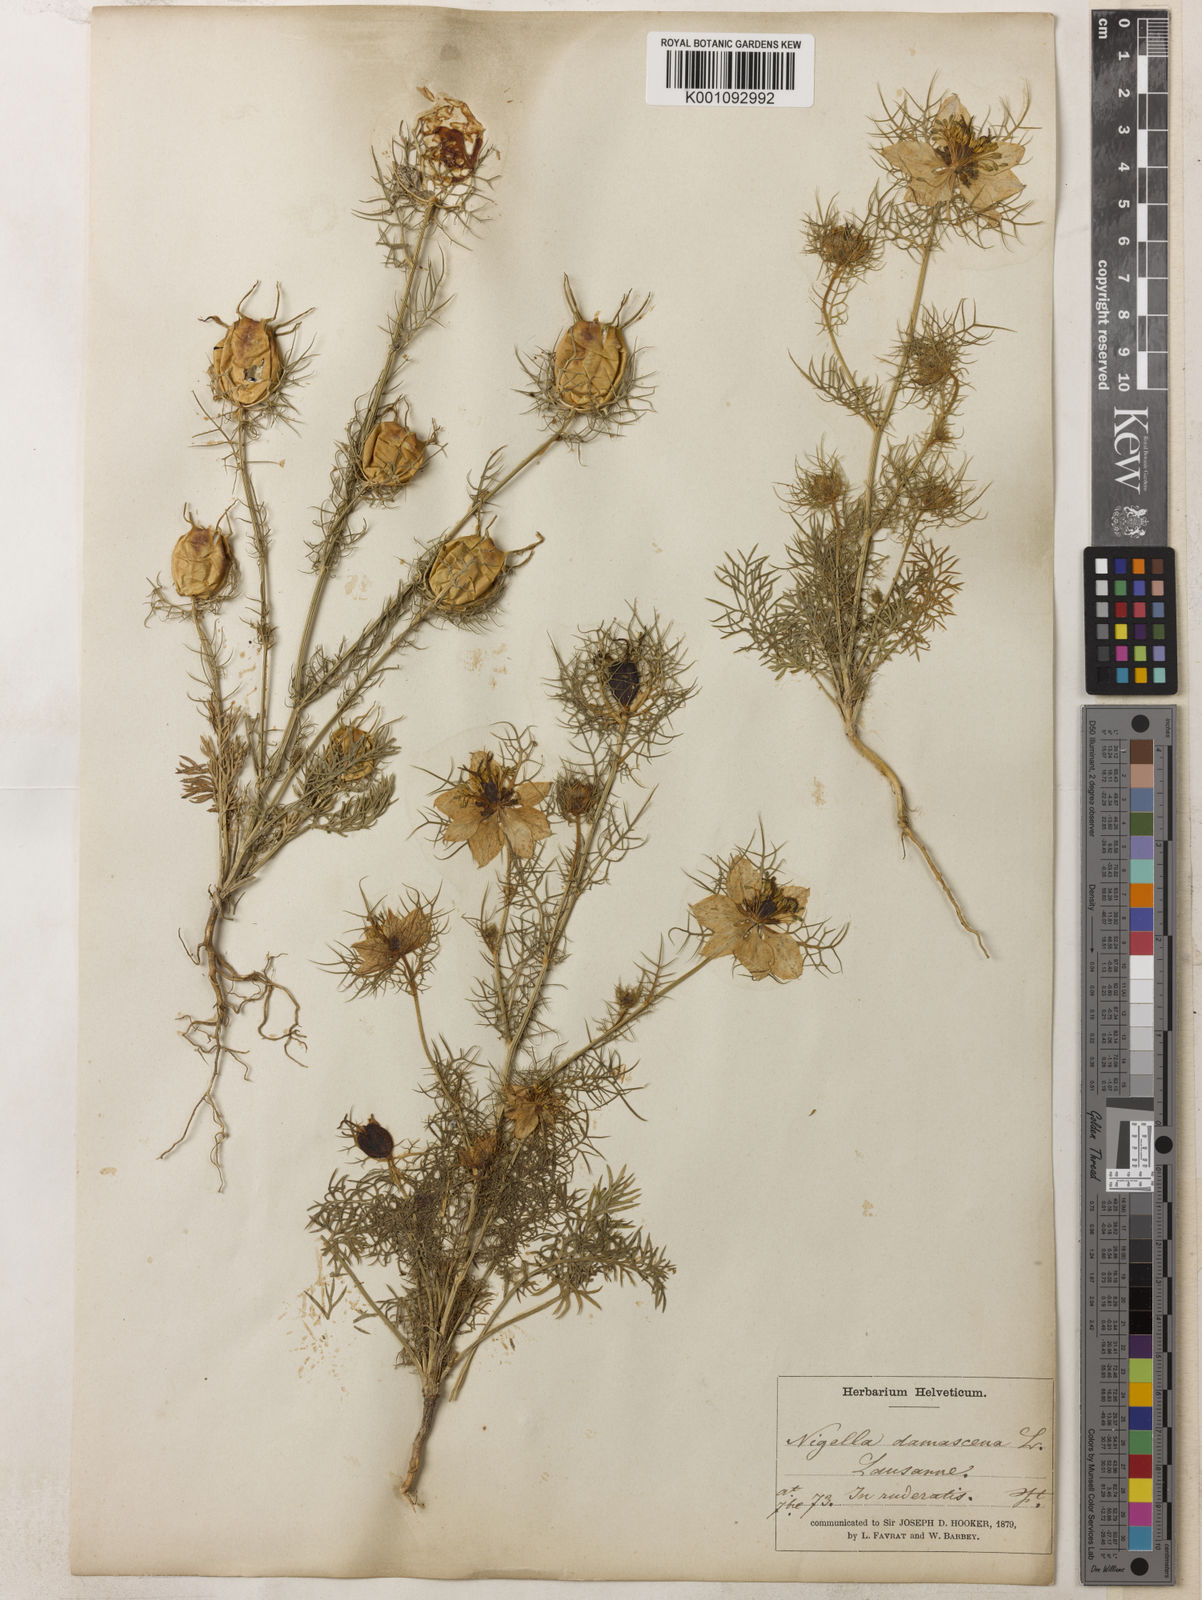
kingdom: Plantae
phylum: Tracheophyta
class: Magnoliopsida
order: Ranunculales
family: Ranunculaceae
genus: Nigella
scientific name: Nigella damascena
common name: Love-in-a-mist
